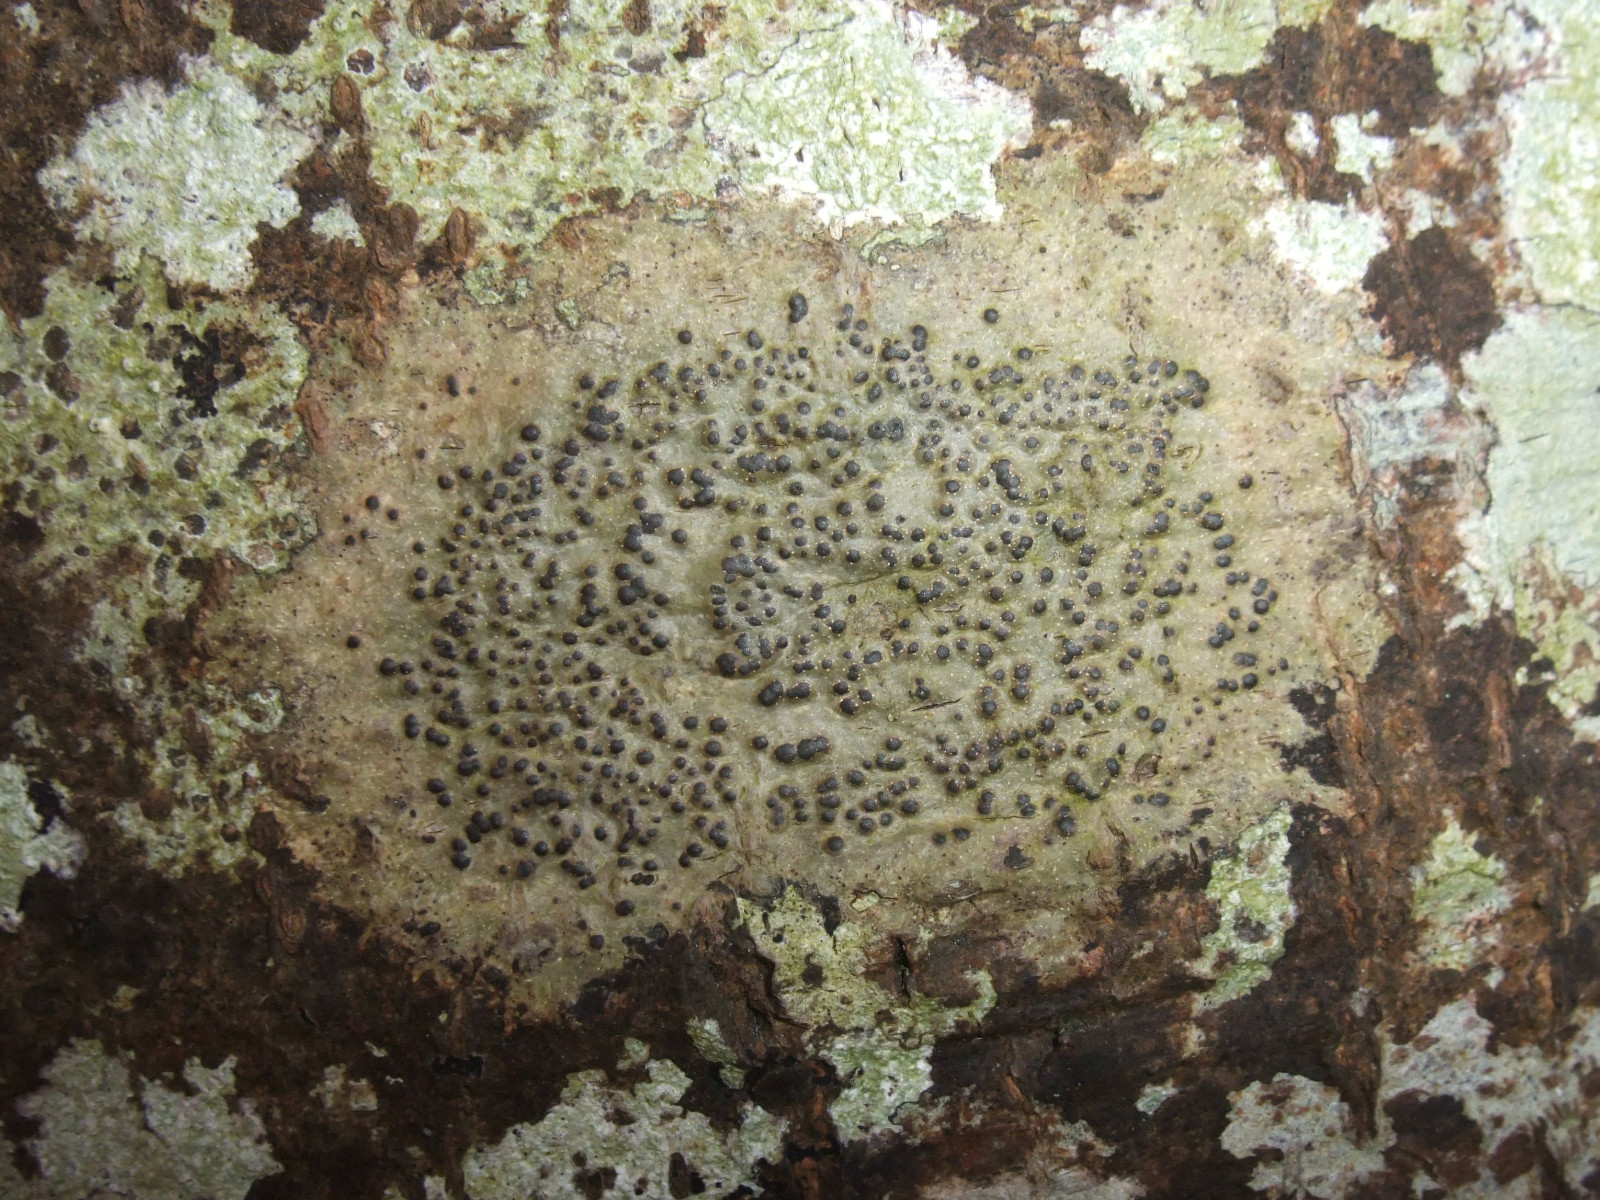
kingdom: Fungi
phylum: Ascomycota
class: Eurotiomycetes
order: Pyrenulales
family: Pyrenulaceae
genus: Pyrenula
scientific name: Pyrenula nitida
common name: glinsende kernelav
